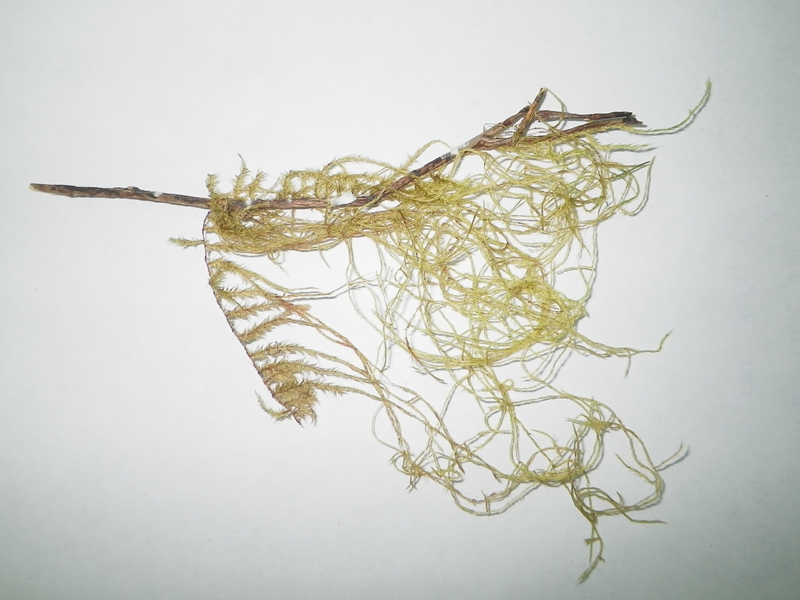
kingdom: Plantae
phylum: Bryophyta
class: Bryopsida
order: Hypnales
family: Meteoriaceae
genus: Neodicladiella
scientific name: Neodicladiella flagellifera
